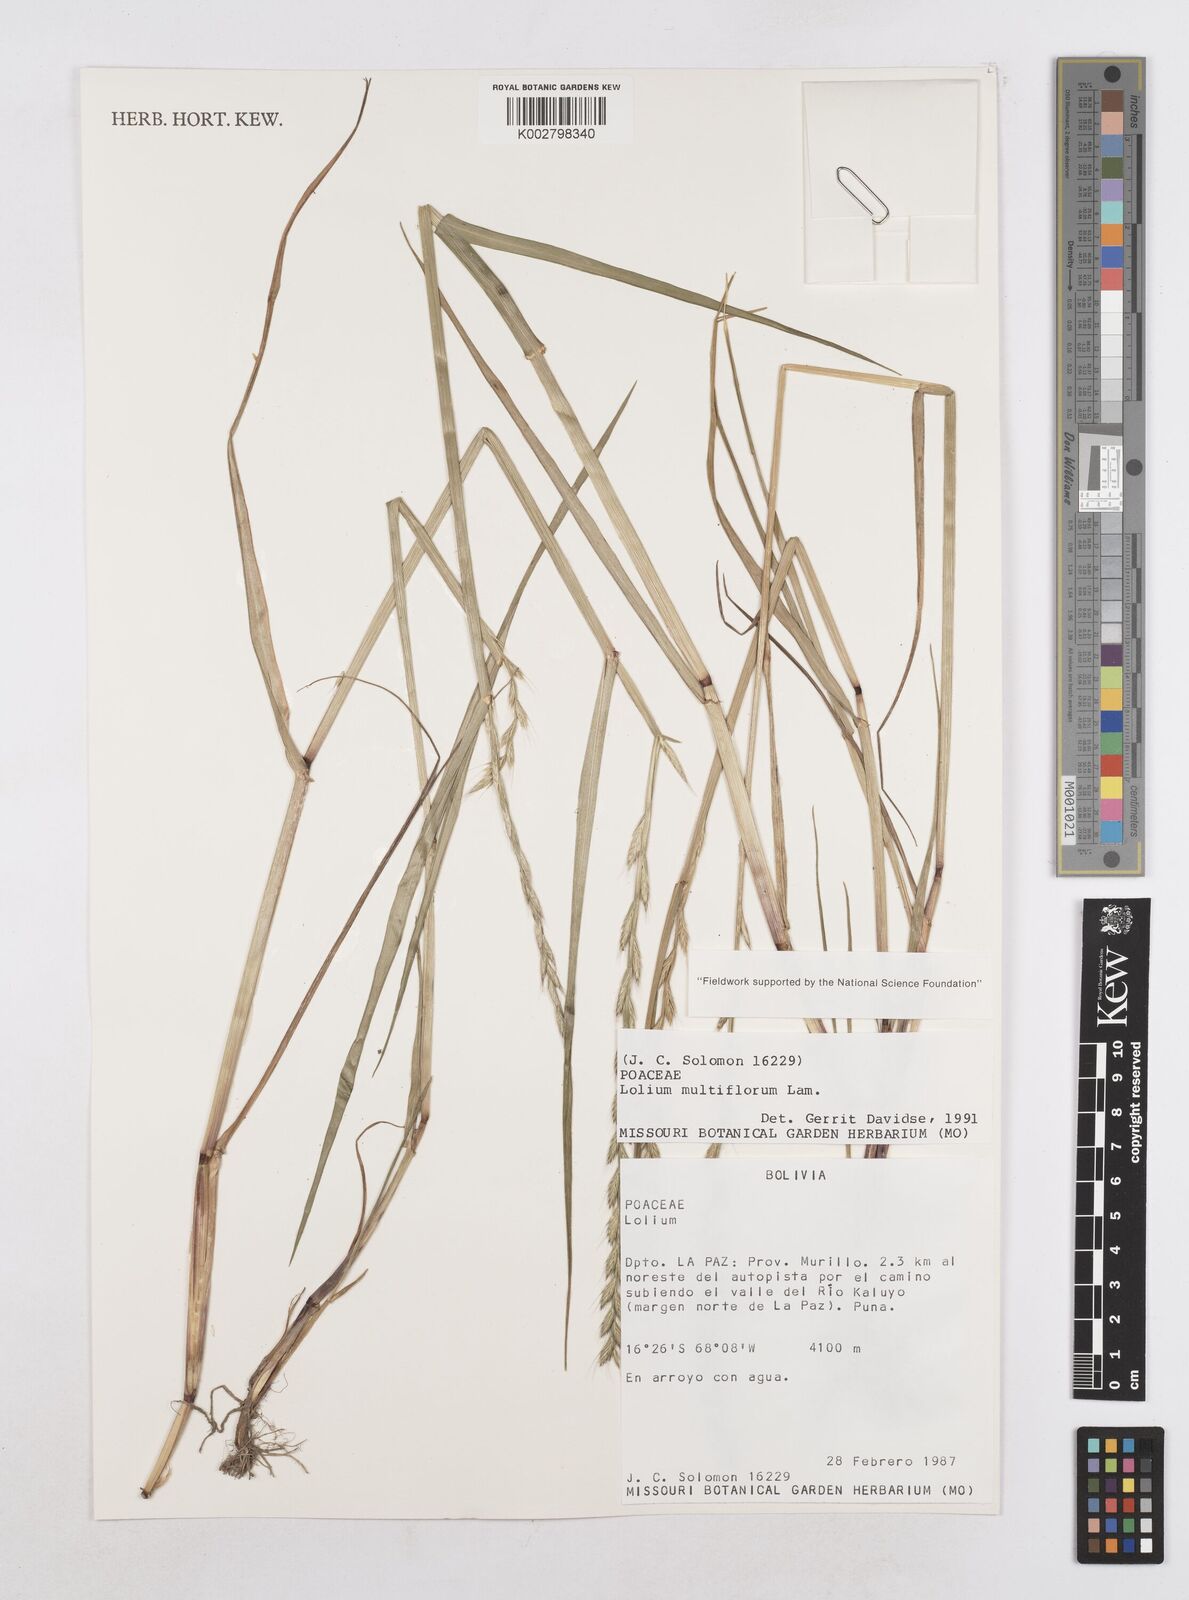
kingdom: Plantae
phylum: Tracheophyta
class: Liliopsida
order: Poales
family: Poaceae
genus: Lolium
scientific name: Lolium multiflorum
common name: Annual ryegrass
